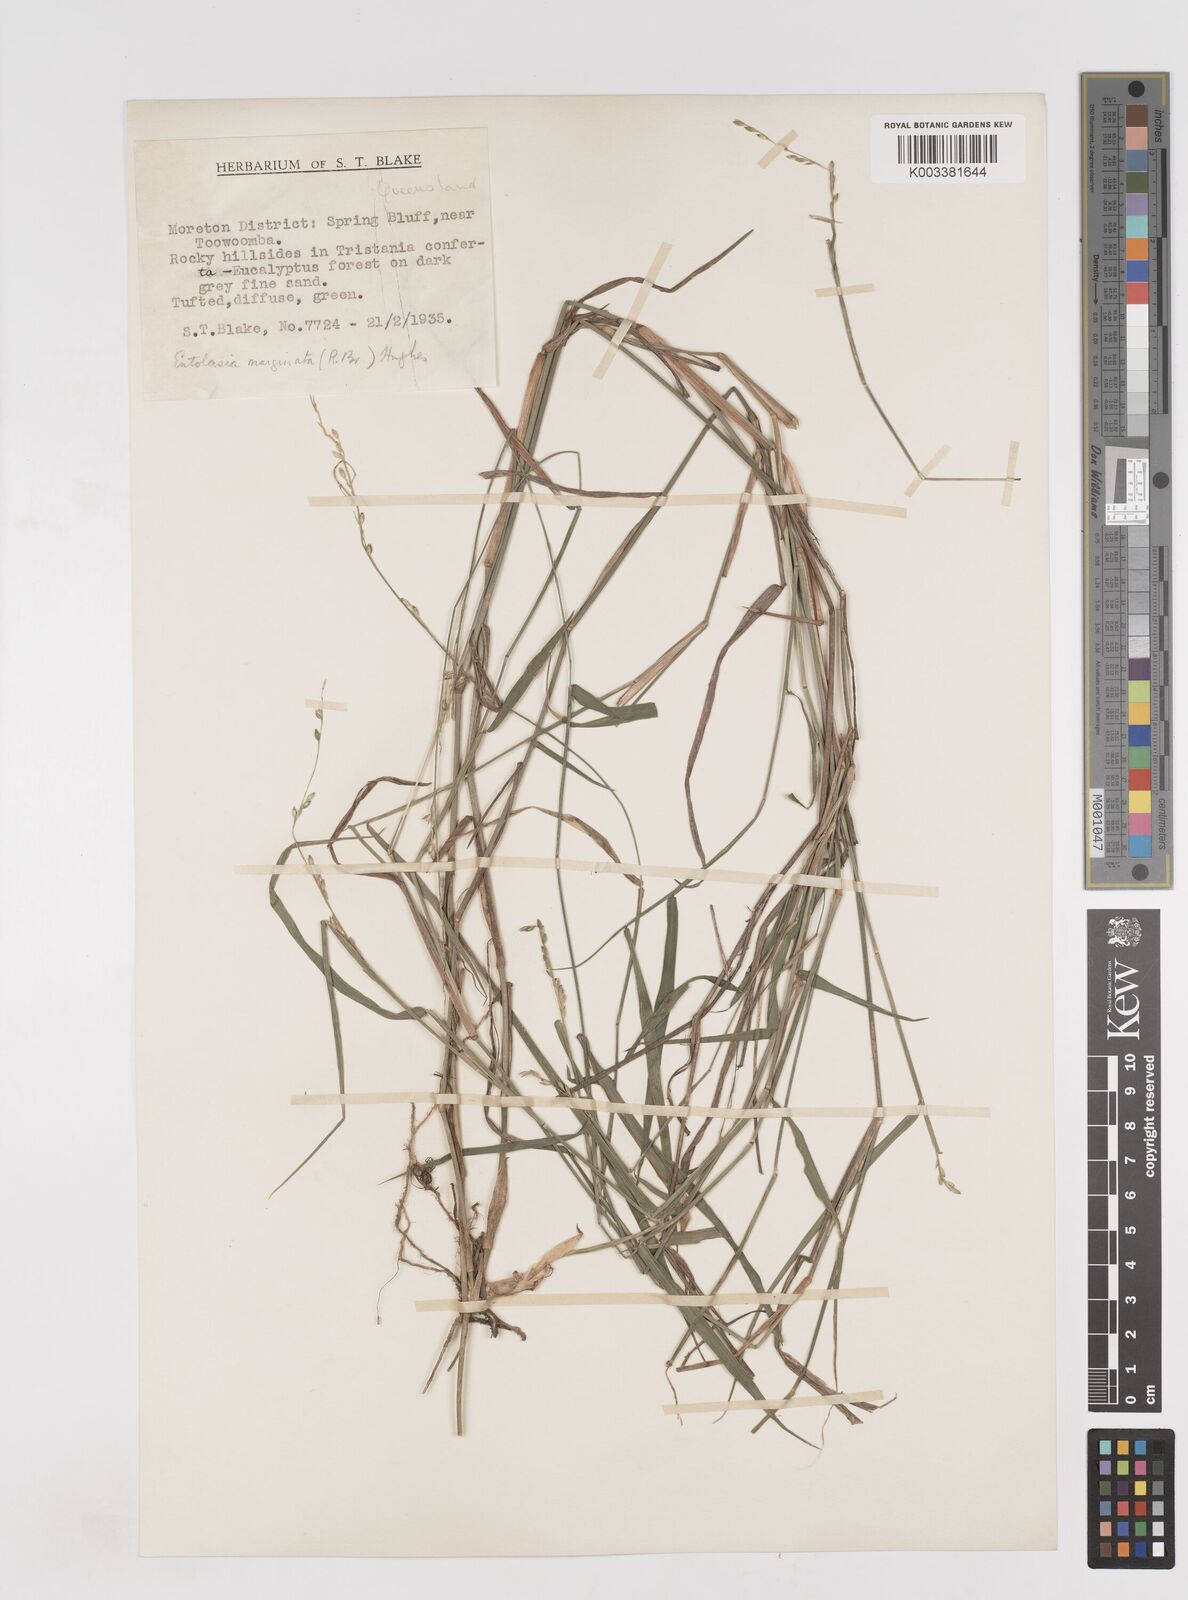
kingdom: Plantae
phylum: Tracheophyta
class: Liliopsida
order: Poales
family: Poaceae
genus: Entolasia
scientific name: Entolasia marginata
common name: Australian panicgrass
